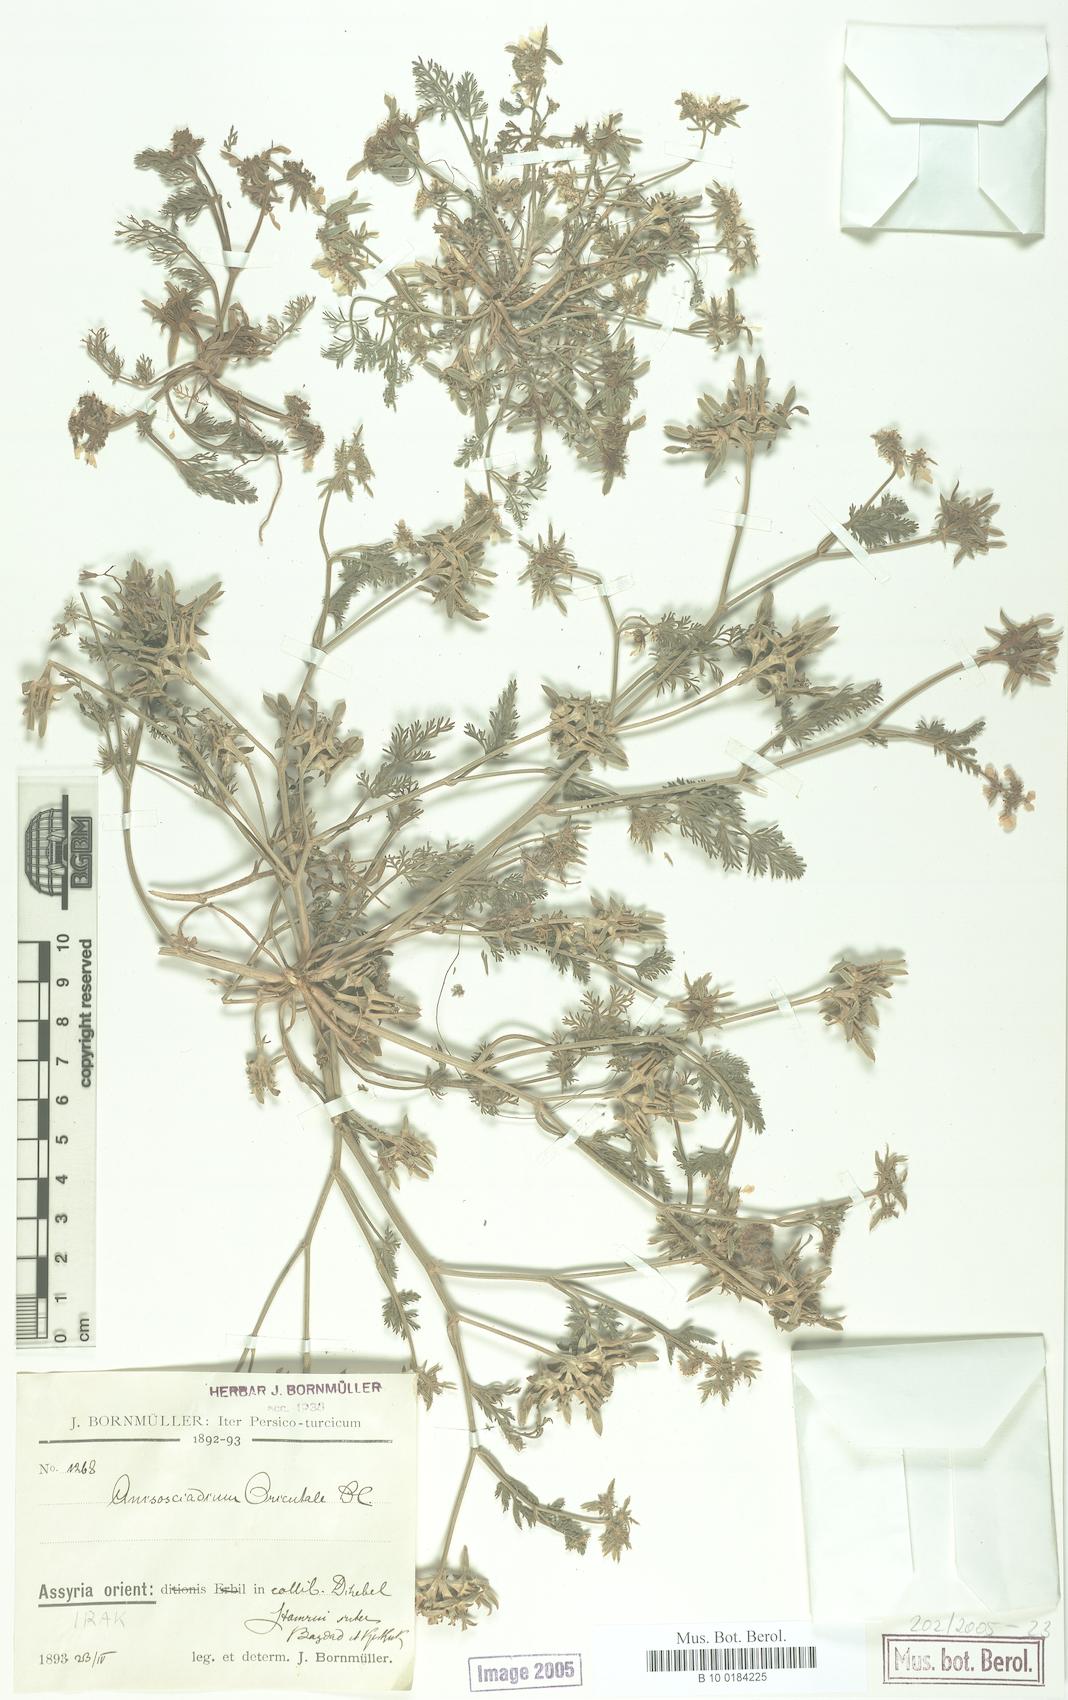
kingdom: Plantae
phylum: Tracheophyta
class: Magnoliopsida
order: Apiales
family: Apiaceae
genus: Anisosciadium
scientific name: Anisosciadium orientale
